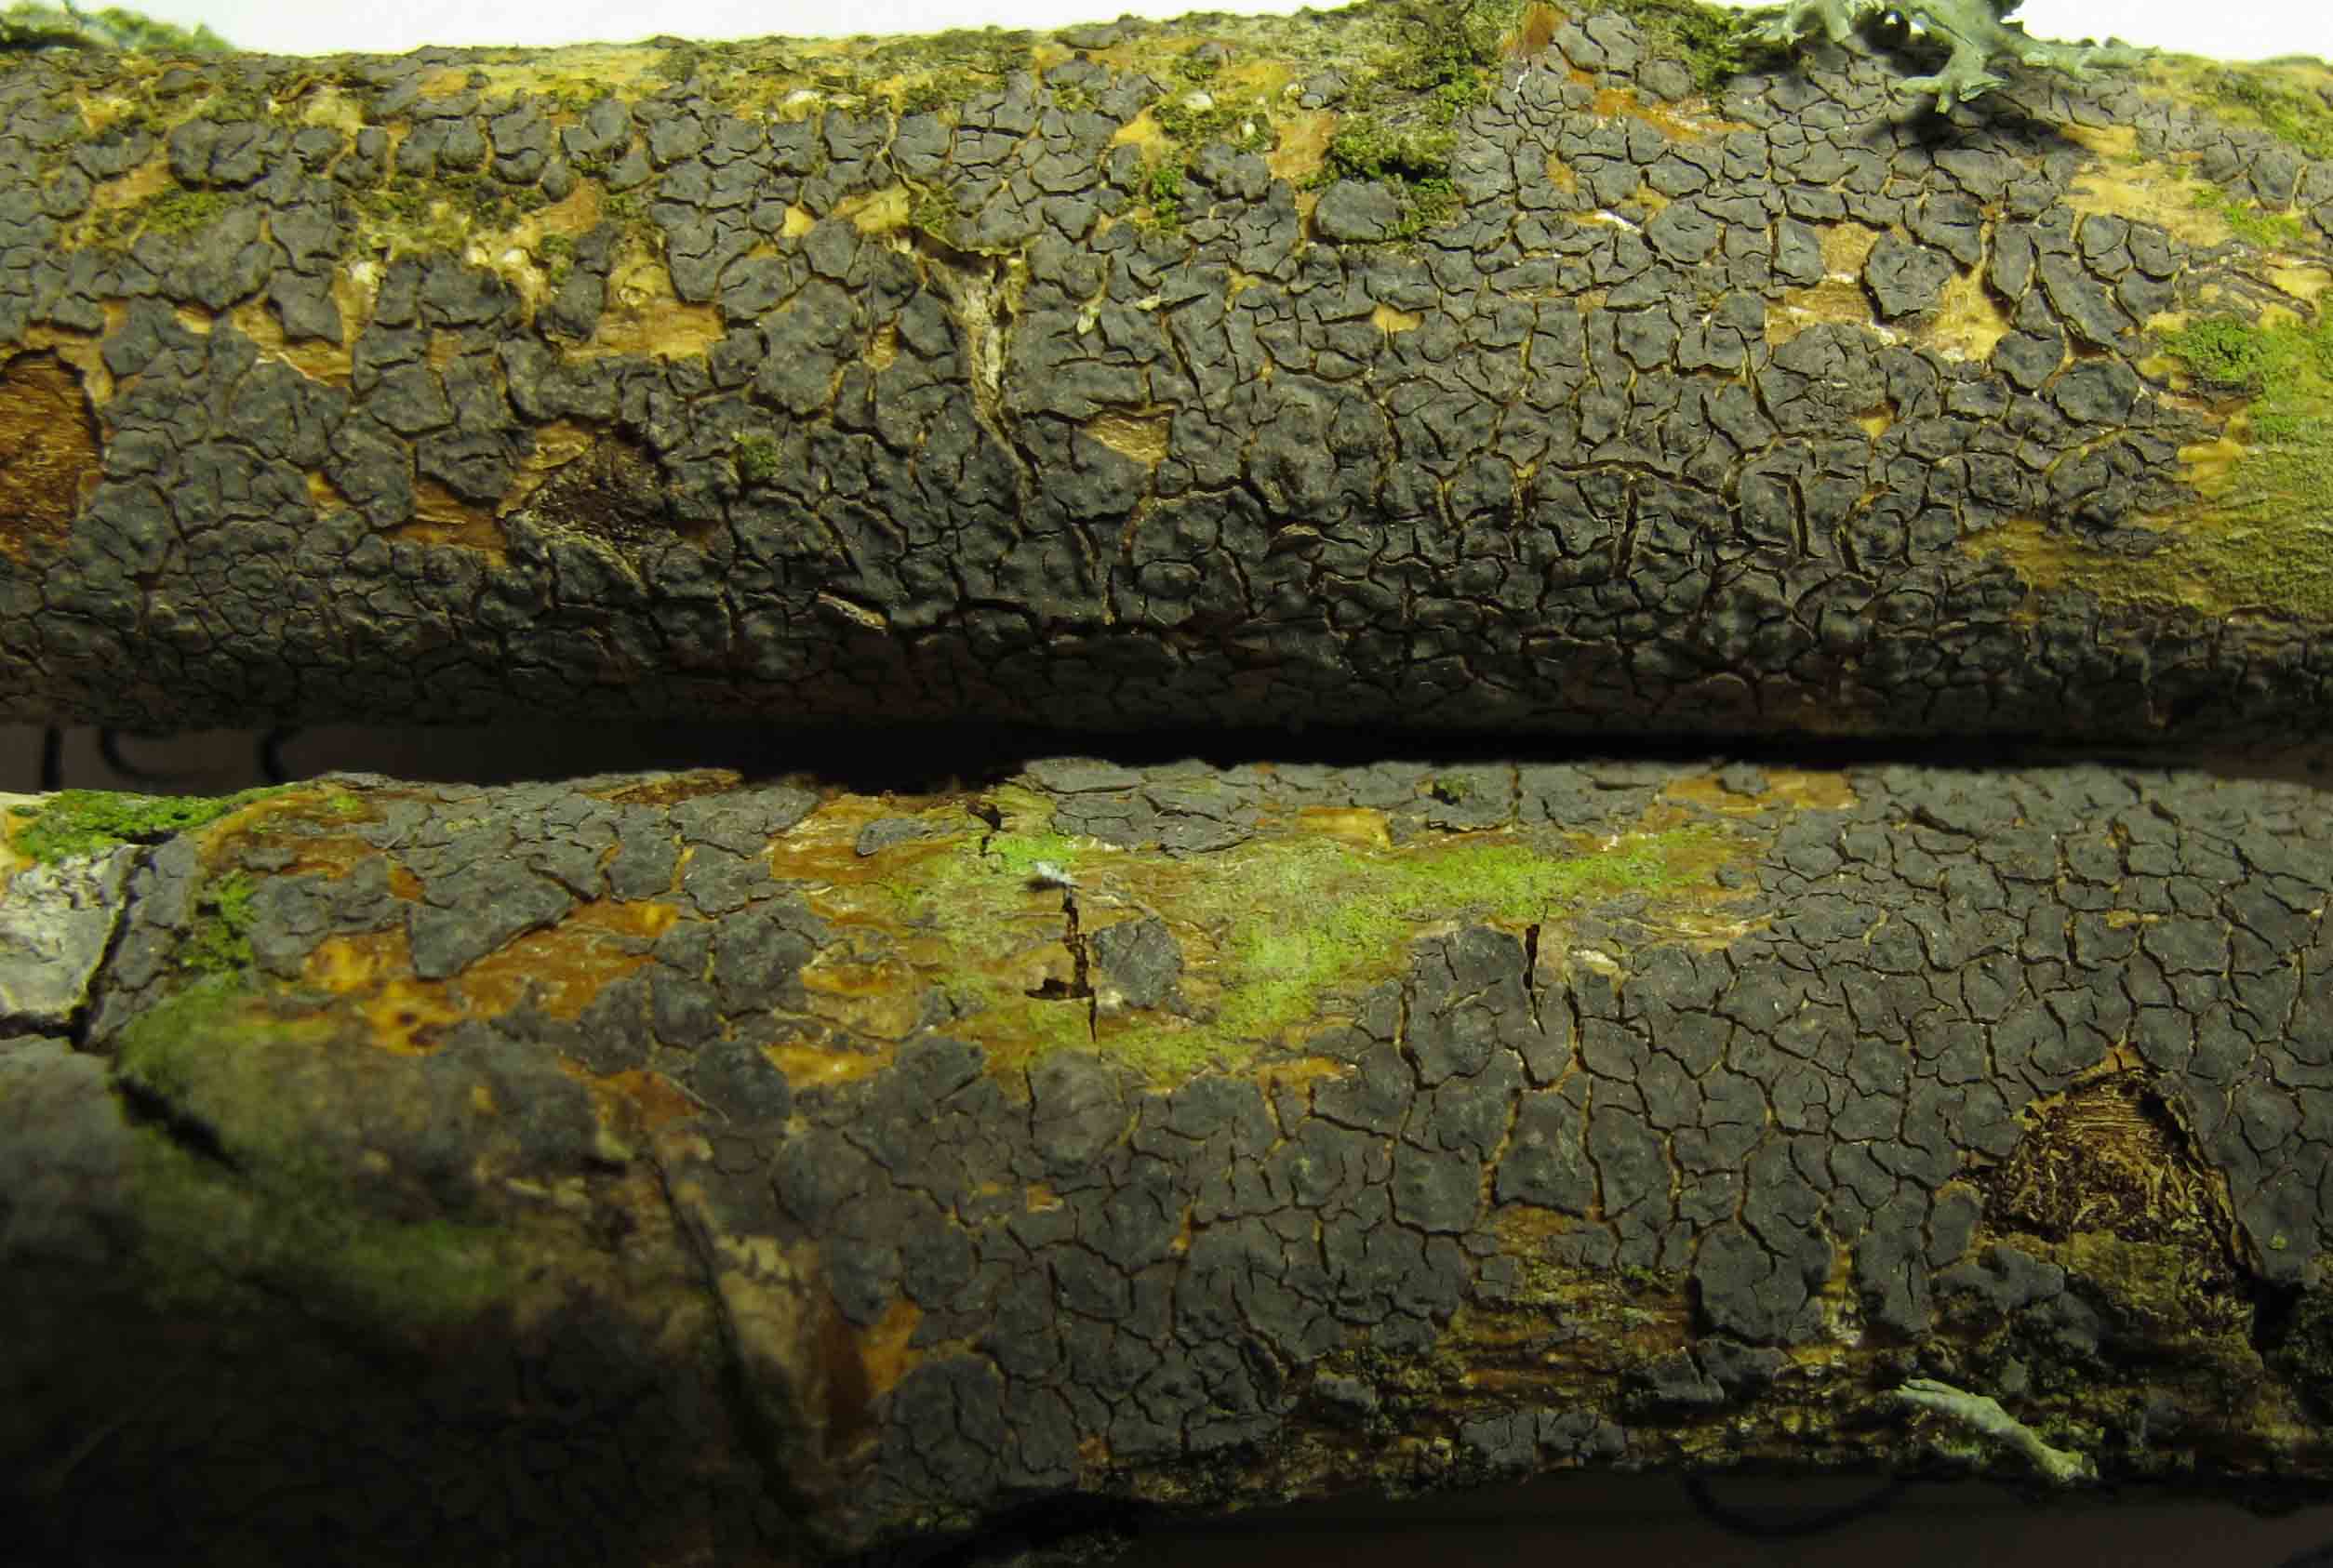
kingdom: Fungi
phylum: Basidiomycota
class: Agaricomycetes
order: Russulales
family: Peniophoraceae
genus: Peniophora
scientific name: Peniophora violaceolivida
